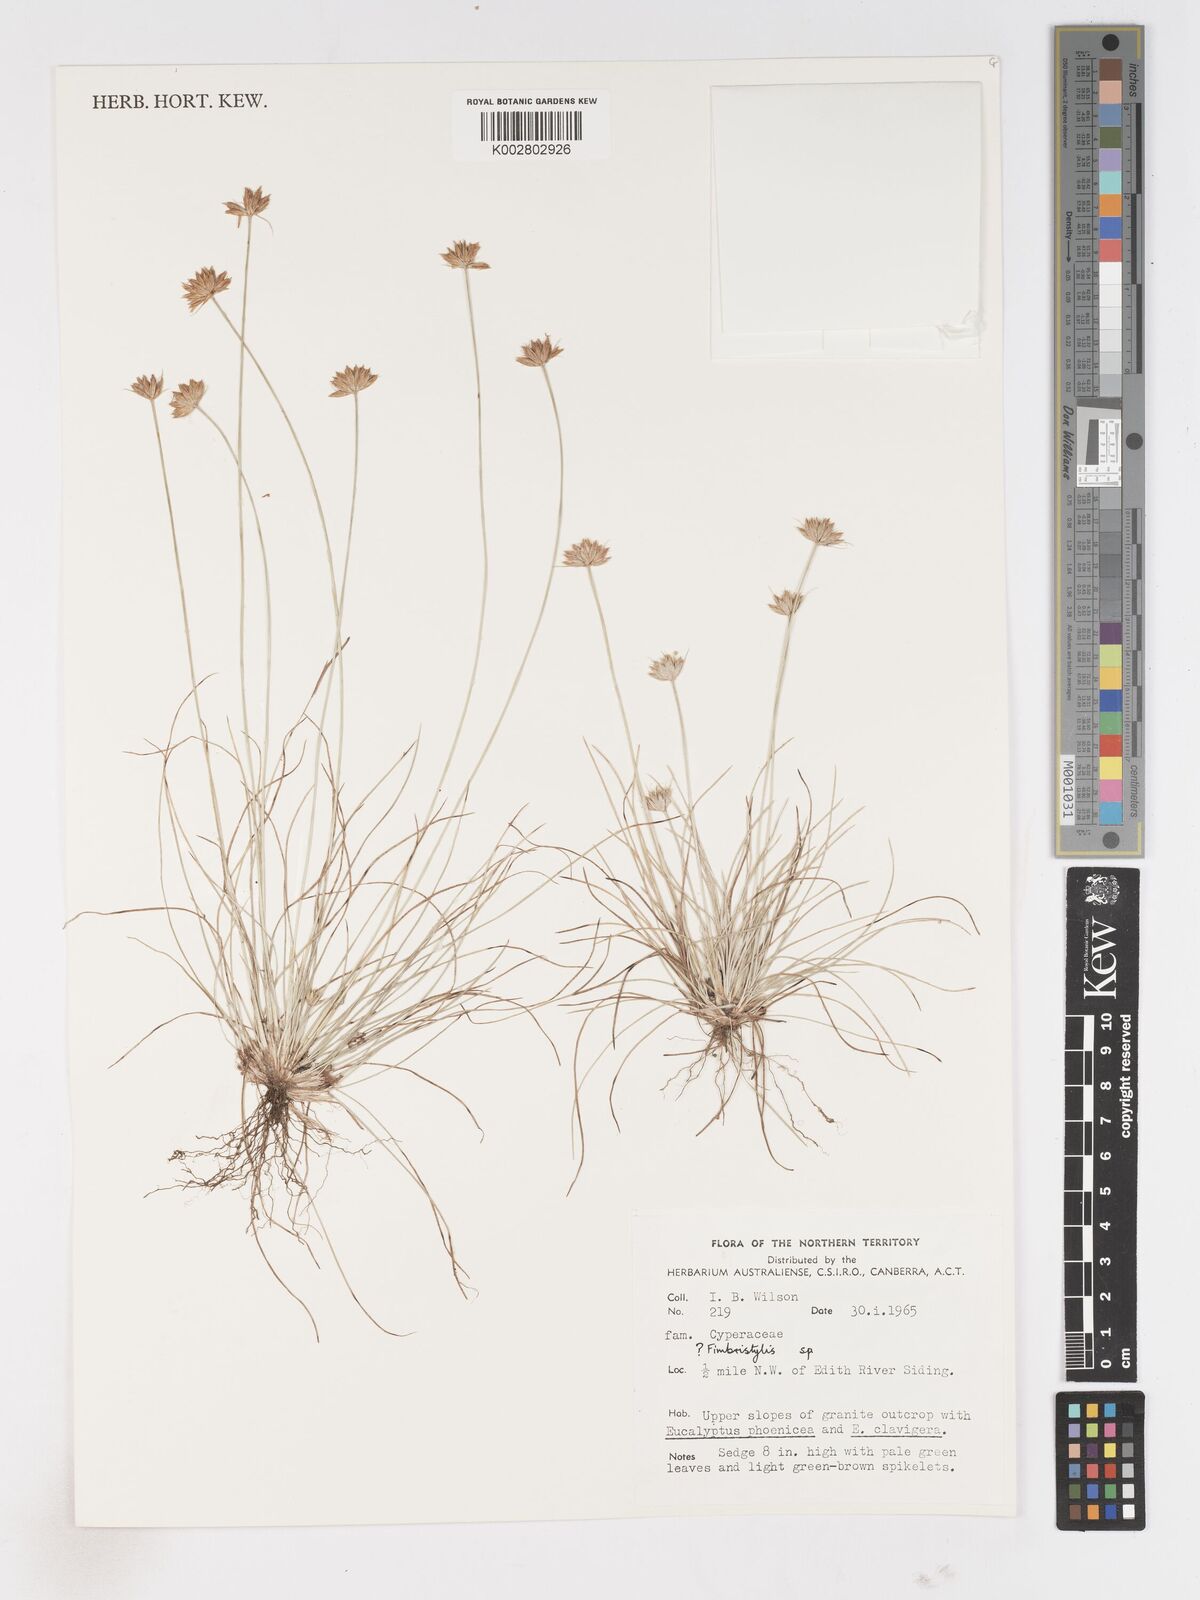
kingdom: Plantae
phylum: Tracheophyta
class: Liliopsida
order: Poales
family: Cyperaceae
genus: Fimbristylis
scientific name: Fimbristylis
